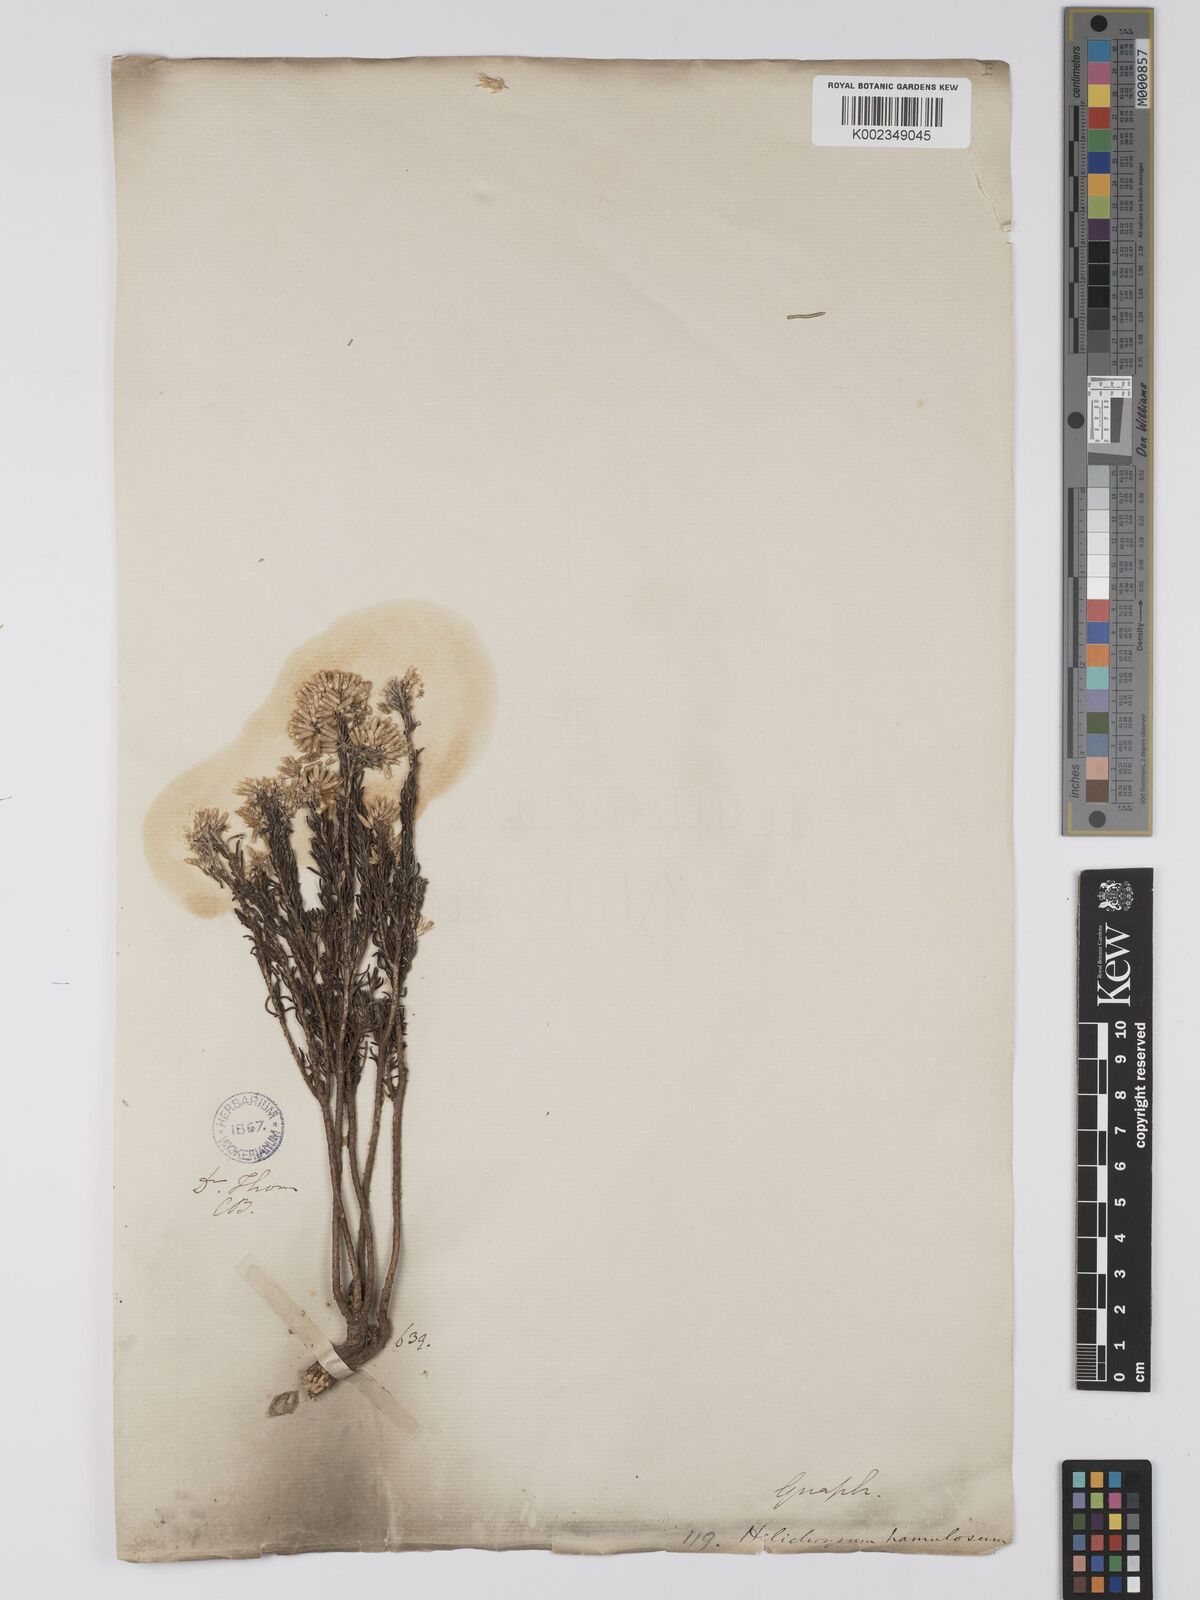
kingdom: Plantae
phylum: Tracheophyta
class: Magnoliopsida
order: Asterales
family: Asteraceae
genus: Helichrysum
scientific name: Helichrysum hamulosum
